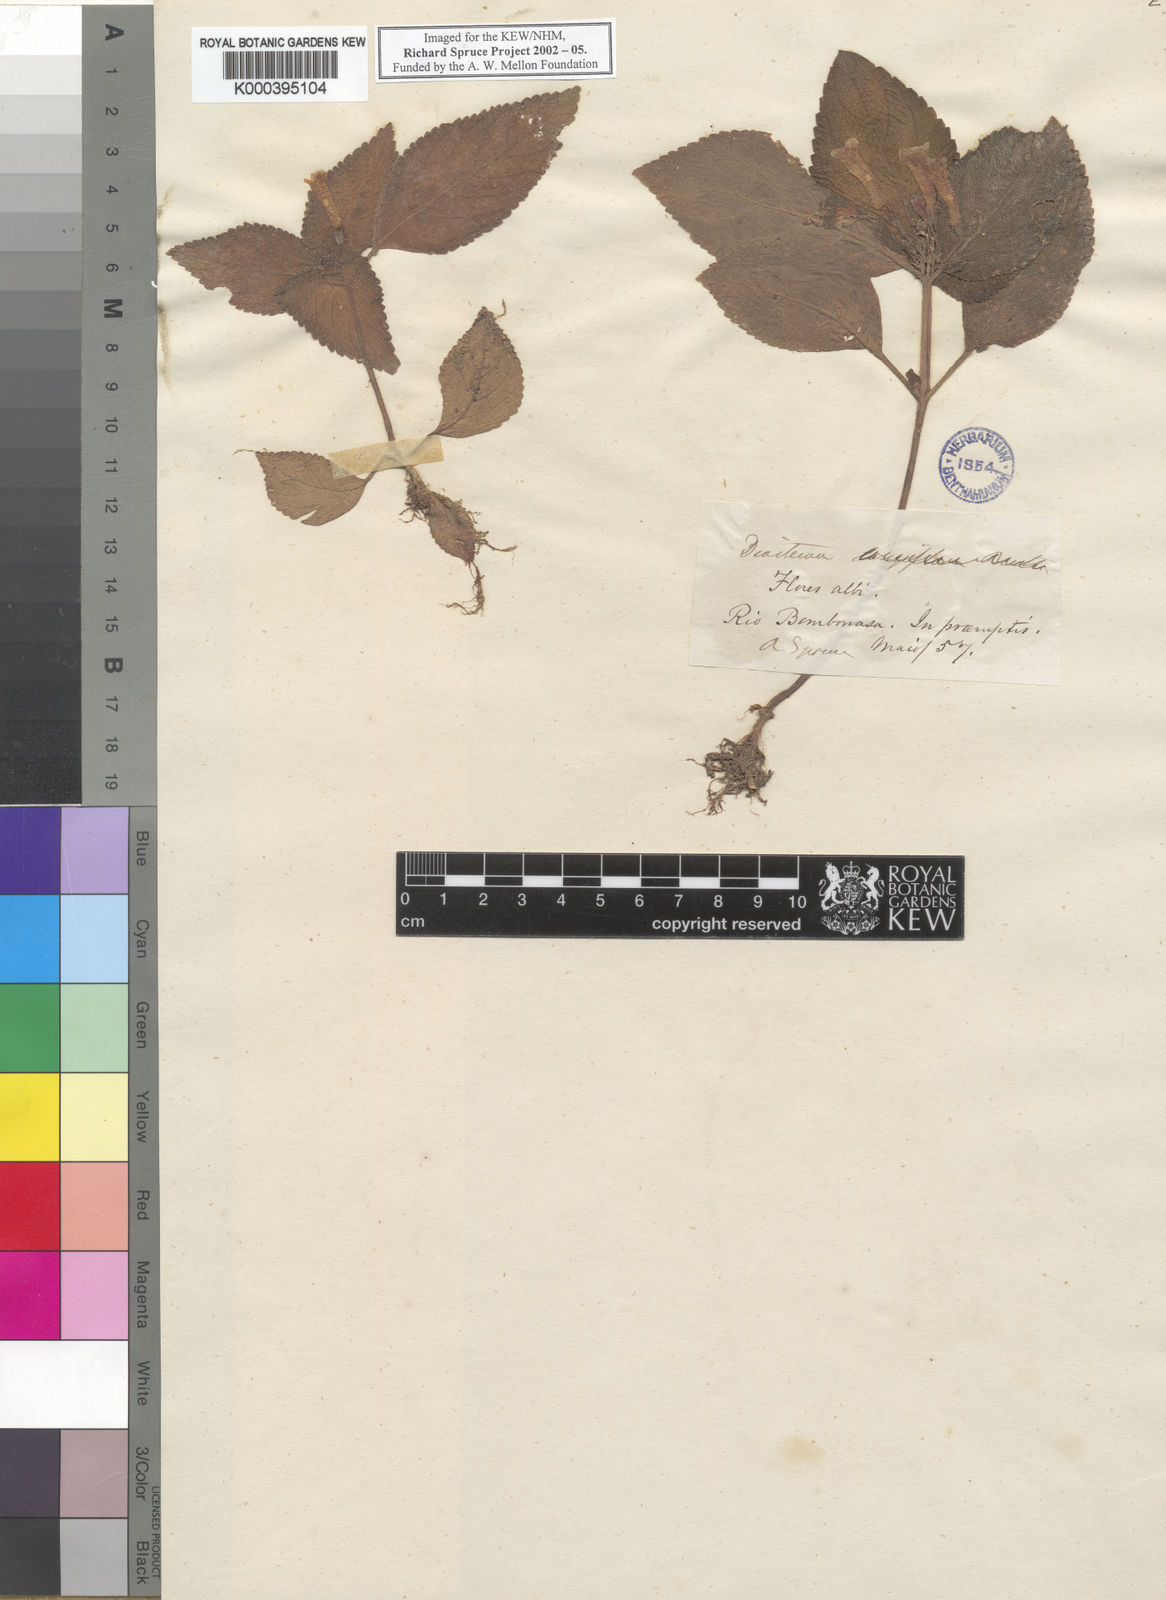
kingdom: Plantae
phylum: Tracheophyta
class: Magnoliopsida
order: Lamiales
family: Gesneriaceae
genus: Diastema
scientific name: Diastema
